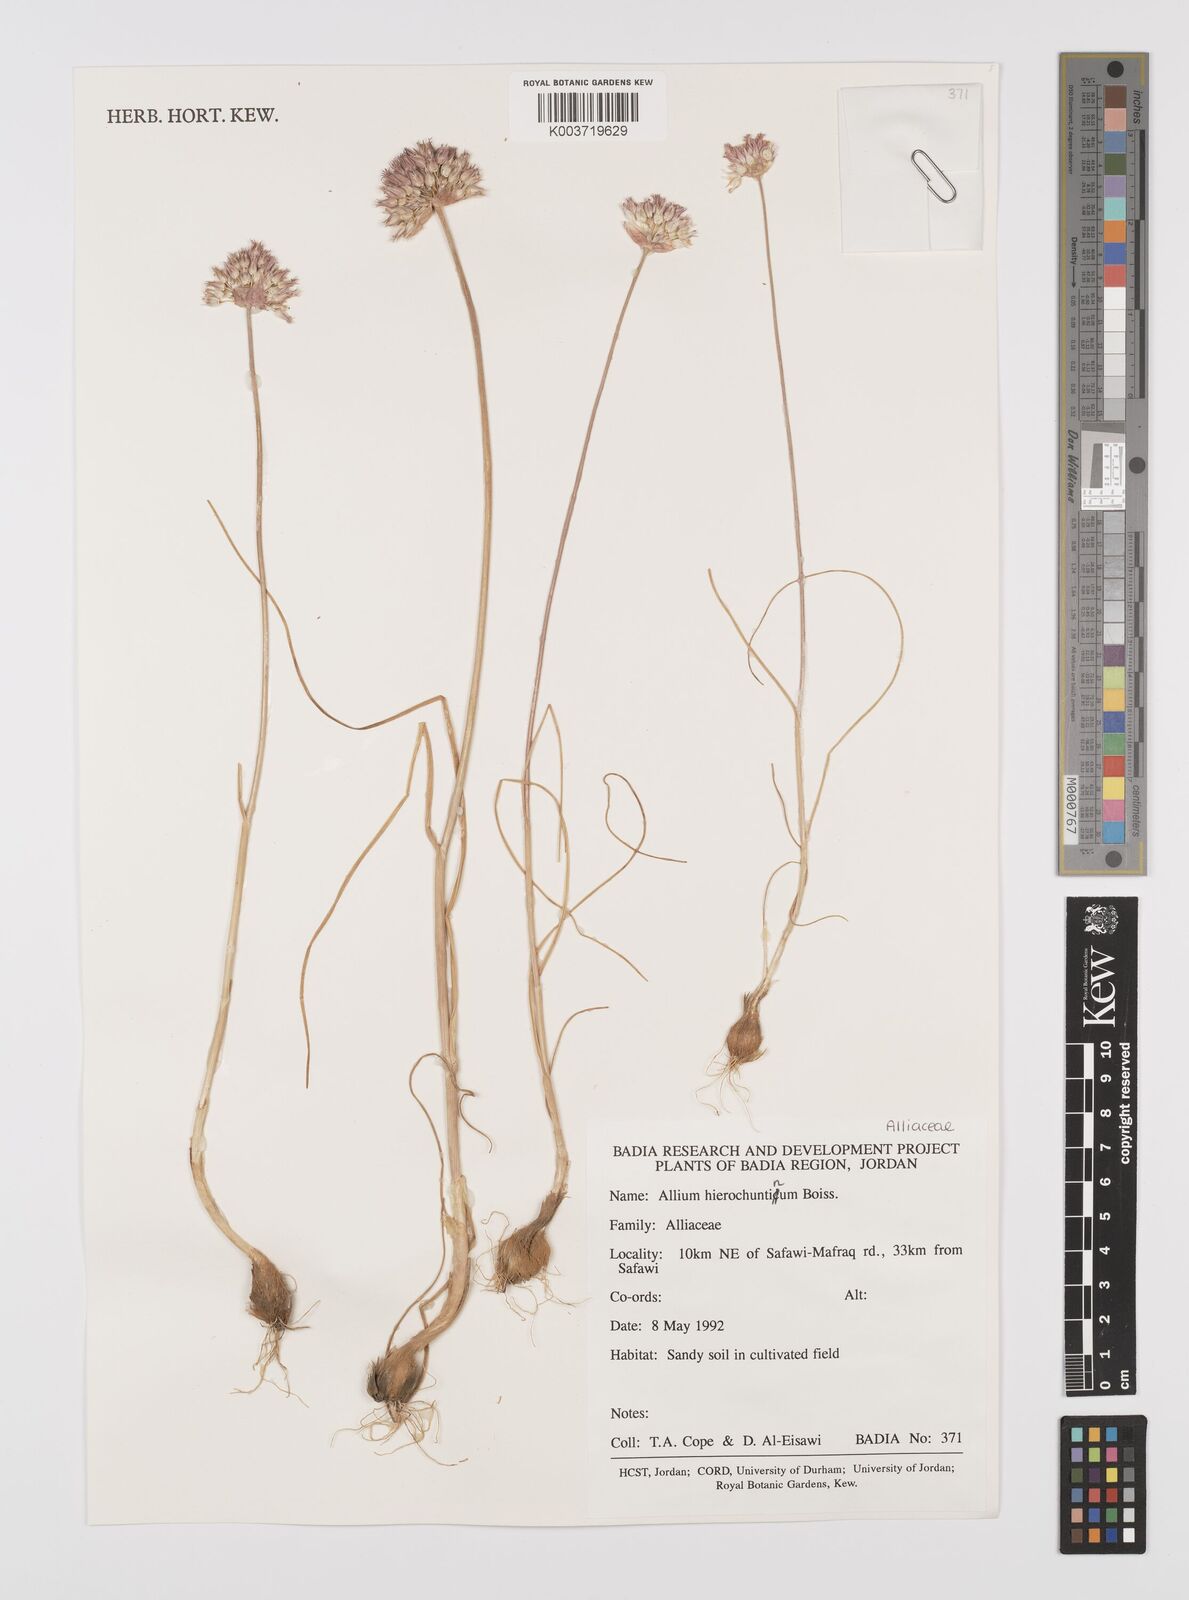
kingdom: Plantae
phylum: Tracheophyta
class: Liliopsida
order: Asparagales
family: Amaryllidaceae
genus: Allium
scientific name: Allium hierosolymorum
